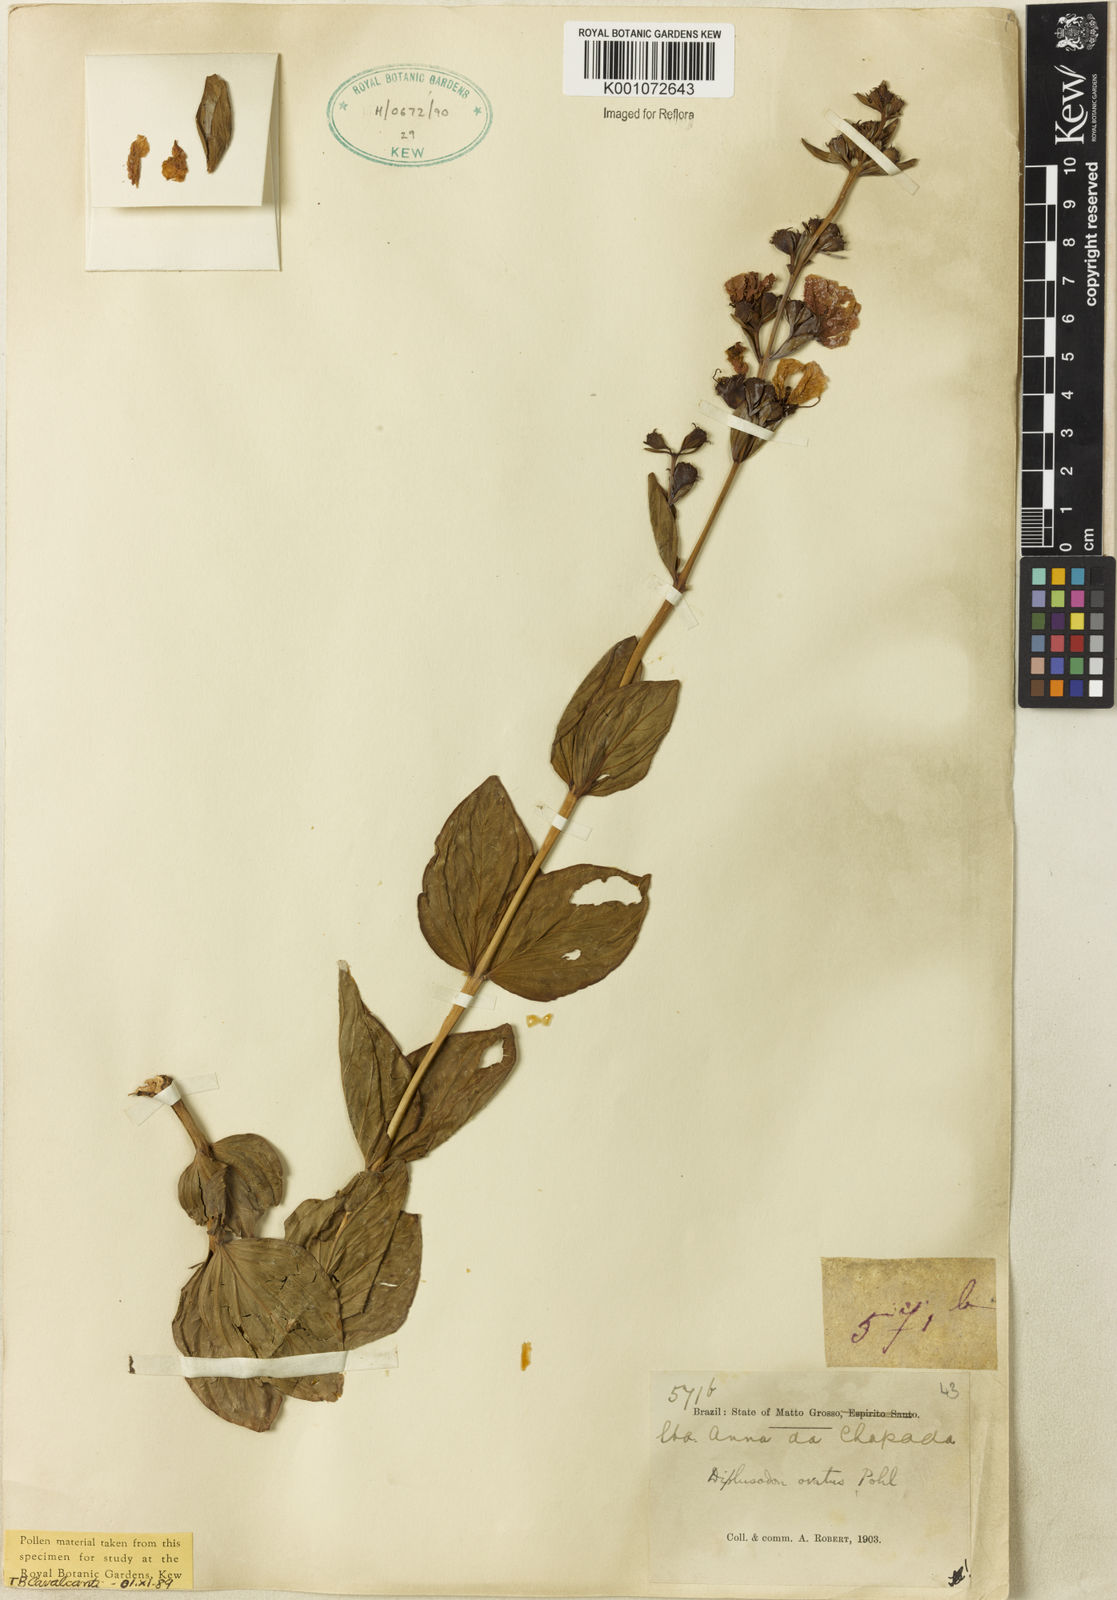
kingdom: Plantae
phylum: Tracheophyta
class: Magnoliopsida
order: Myrtales
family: Lythraceae
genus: Diplusodon
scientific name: Diplusodon ovatus
